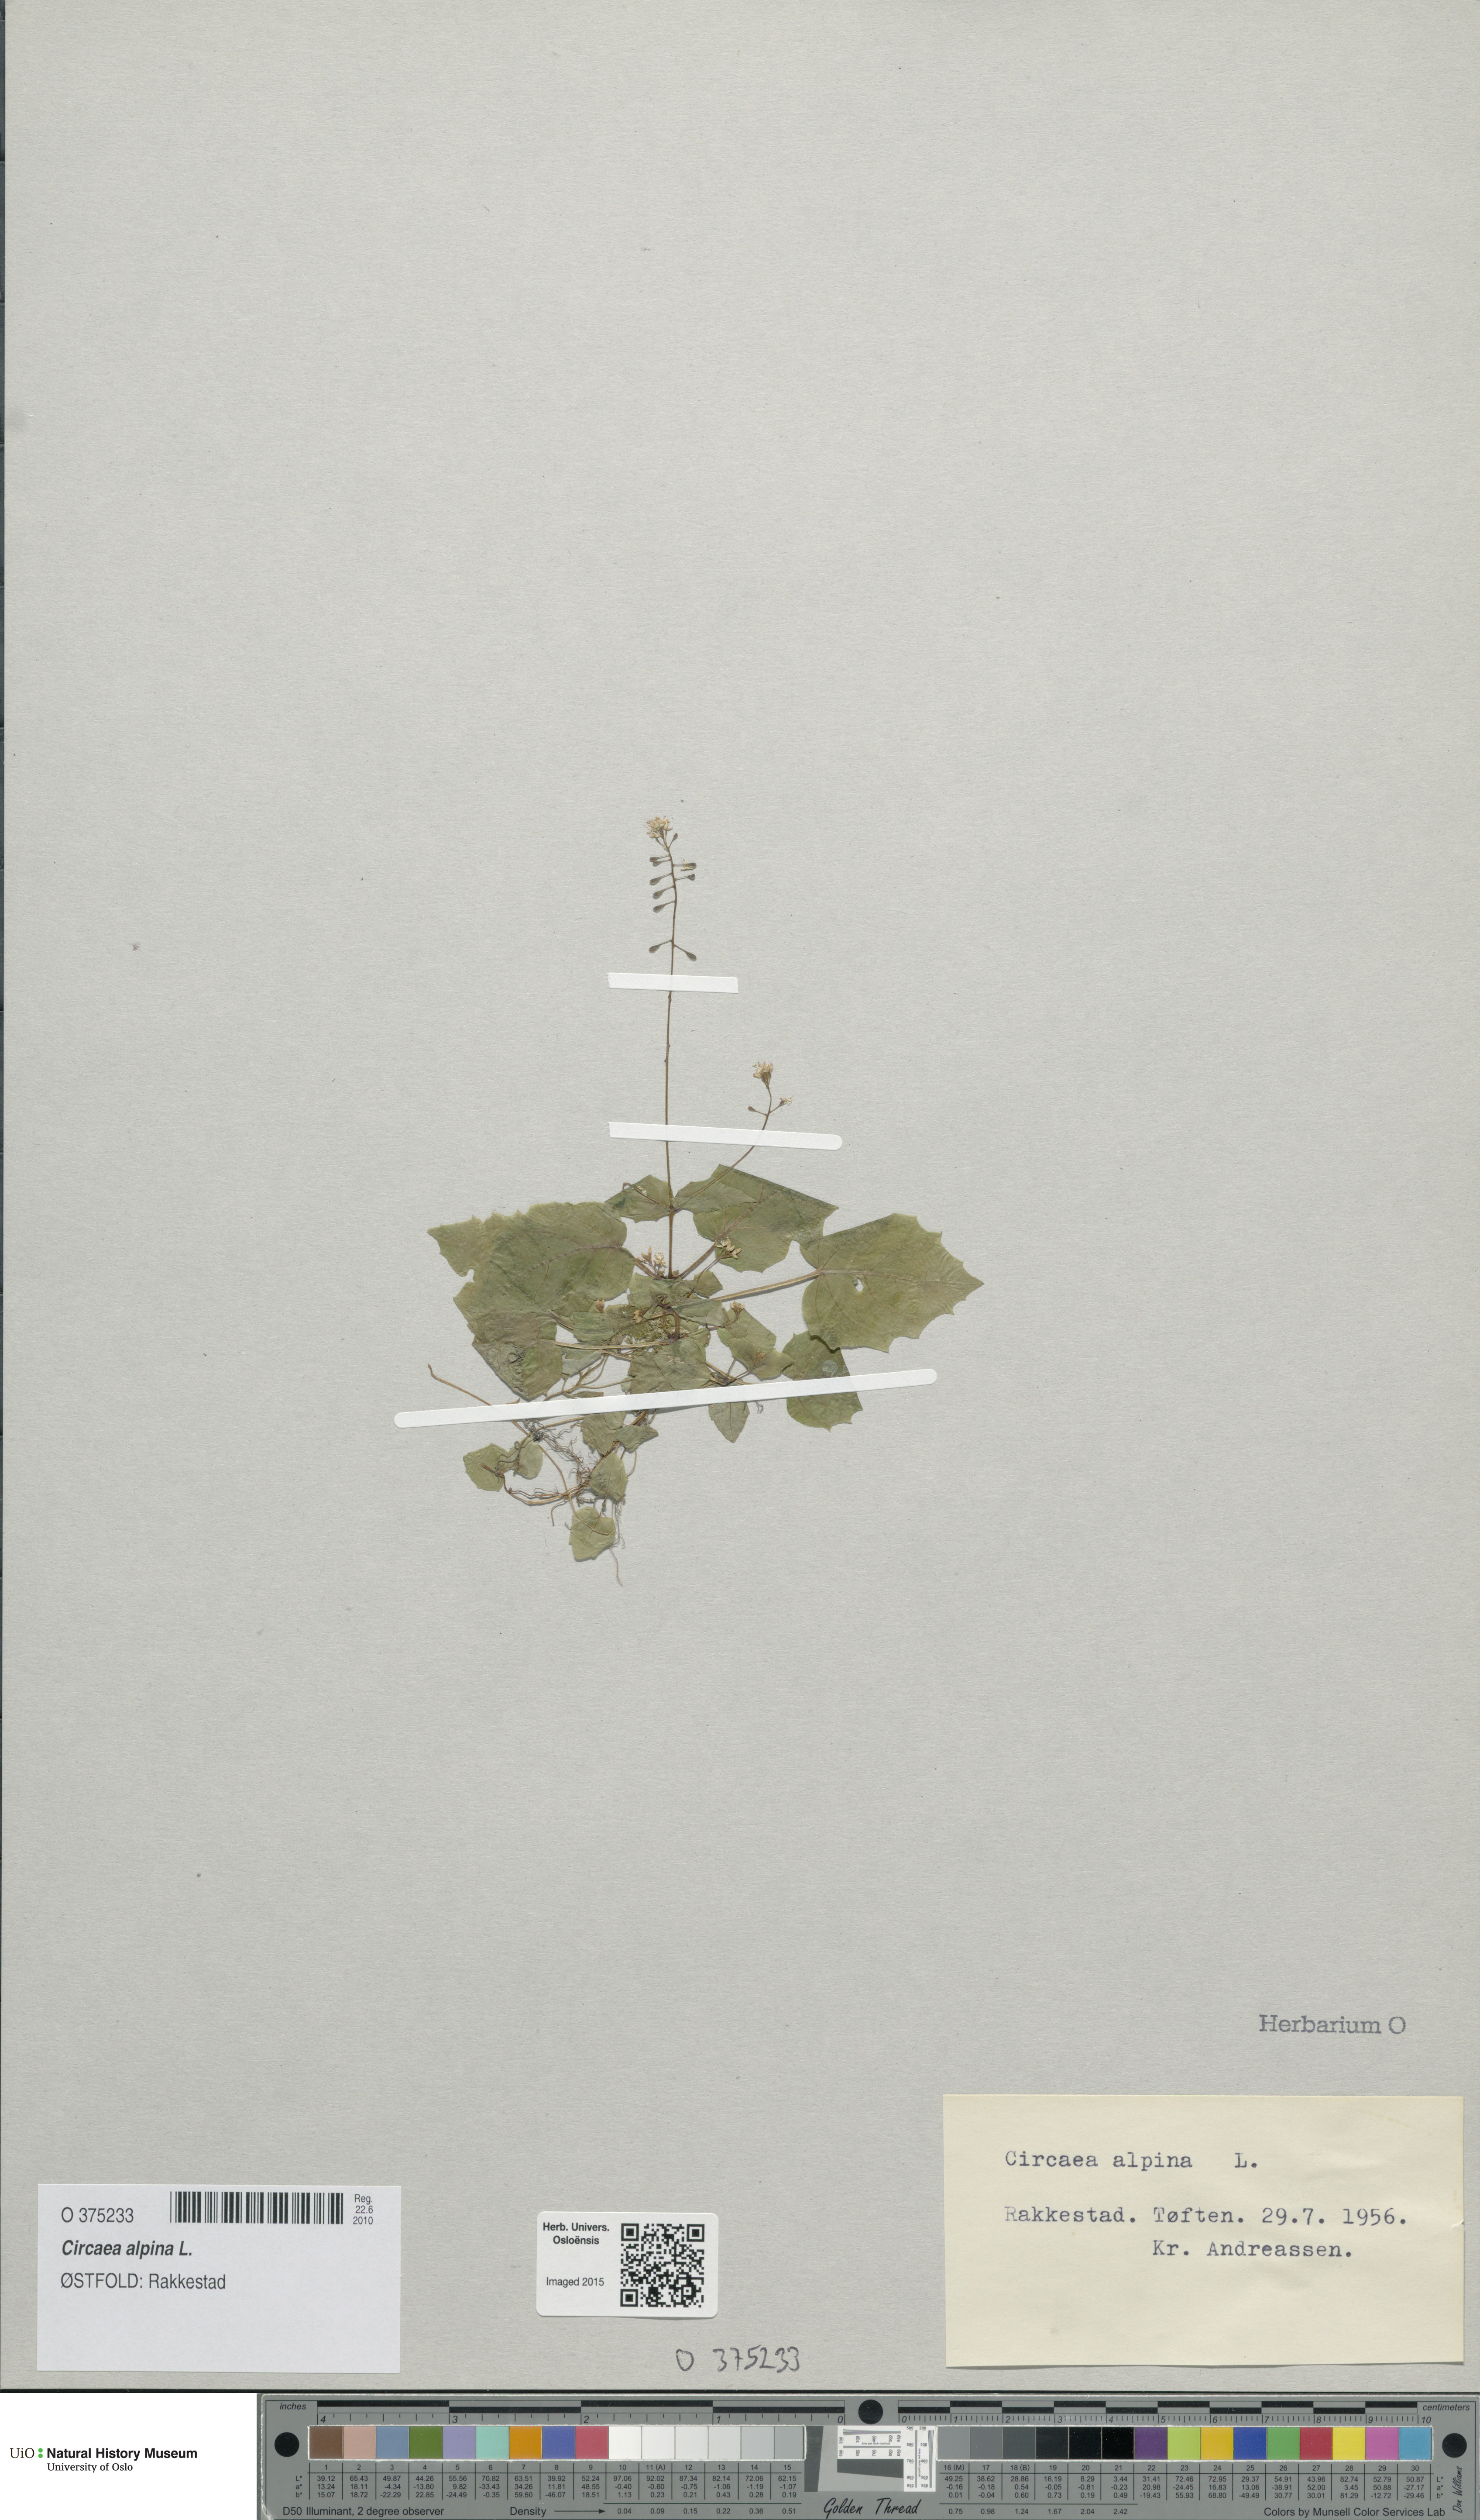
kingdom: Plantae
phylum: Tracheophyta
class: Magnoliopsida
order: Myrtales
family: Onagraceae
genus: Circaea
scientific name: Circaea alpina
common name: Alpine enchanter's-nightshade
